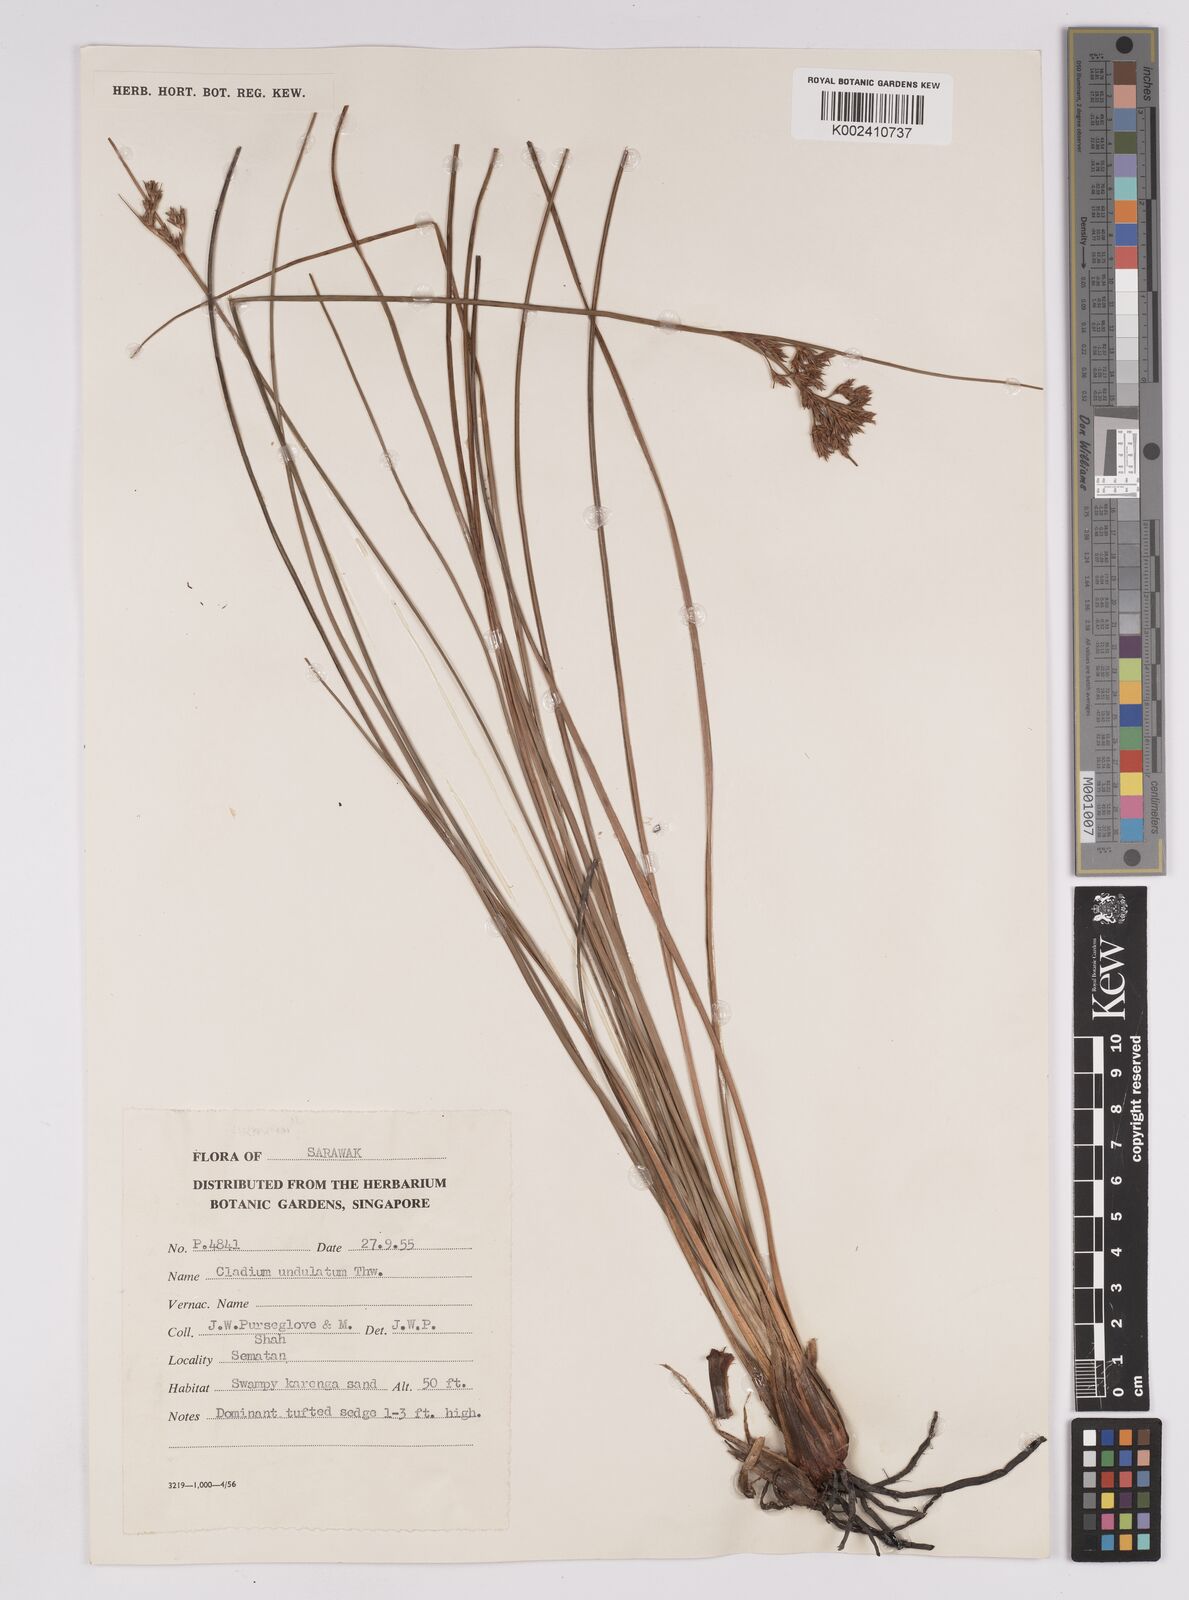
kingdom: Plantae
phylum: Tracheophyta
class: Liliopsida
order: Poales
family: Cyperaceae
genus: Anthelepis
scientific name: Anthelepis undulata
